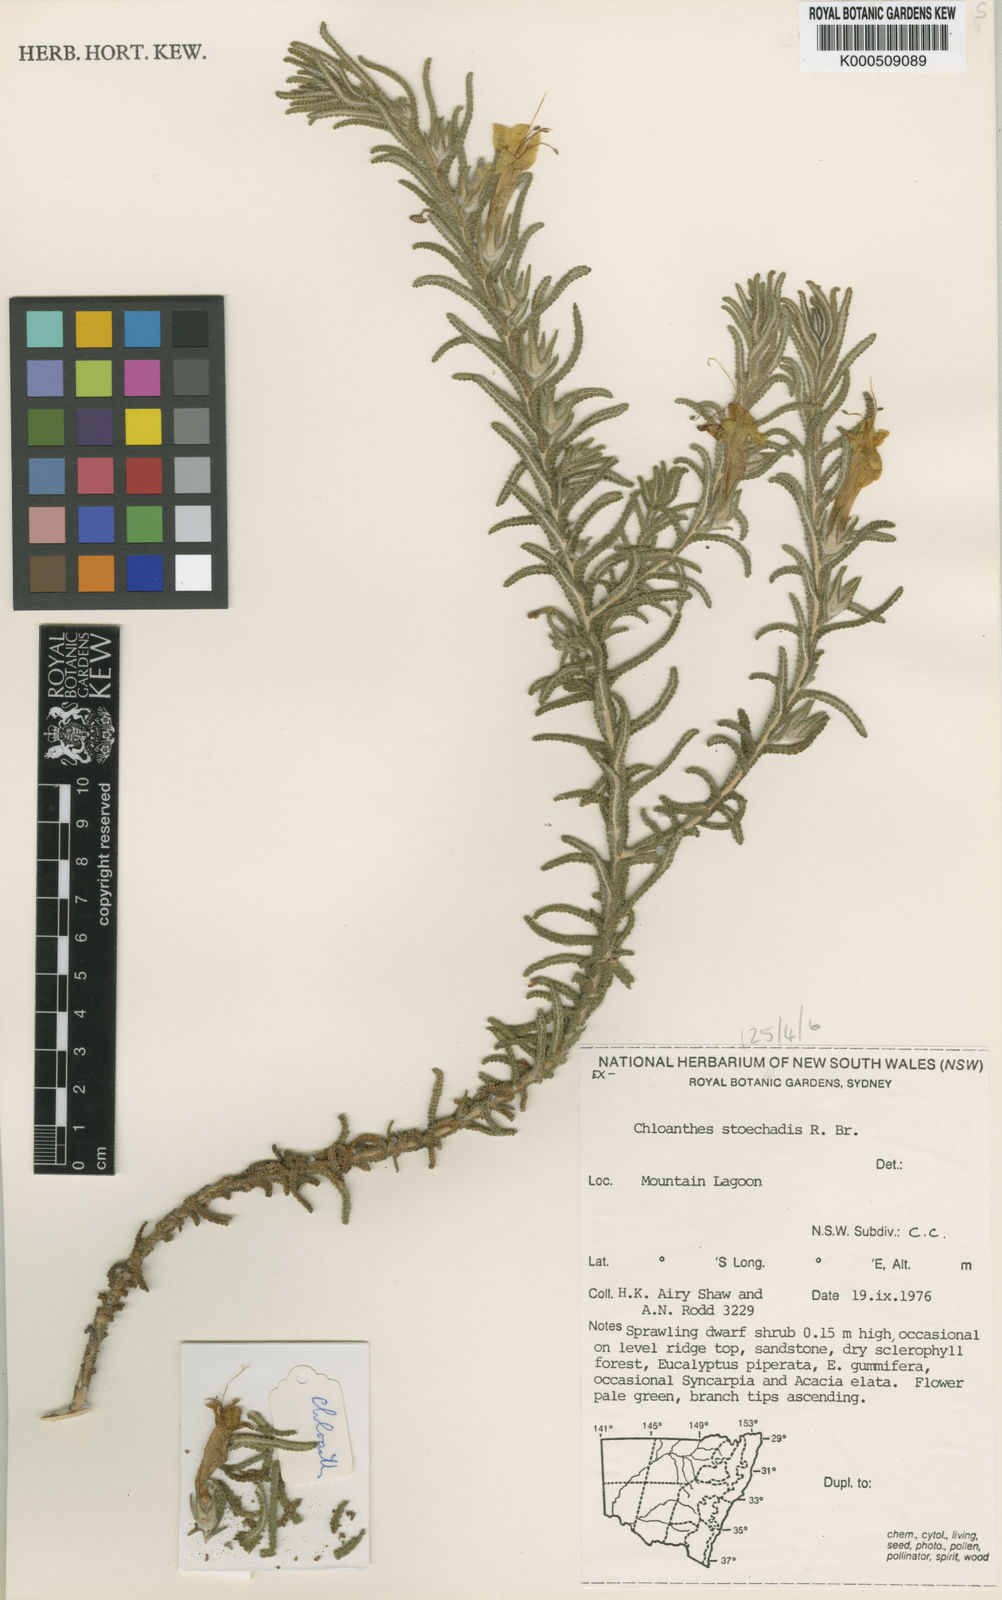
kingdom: Plantae
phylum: Tracheophyta
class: Magnoliopsida
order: Lamiales
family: Lamiaceae
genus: Chloanthes
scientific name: Chloanthes stoechadis
